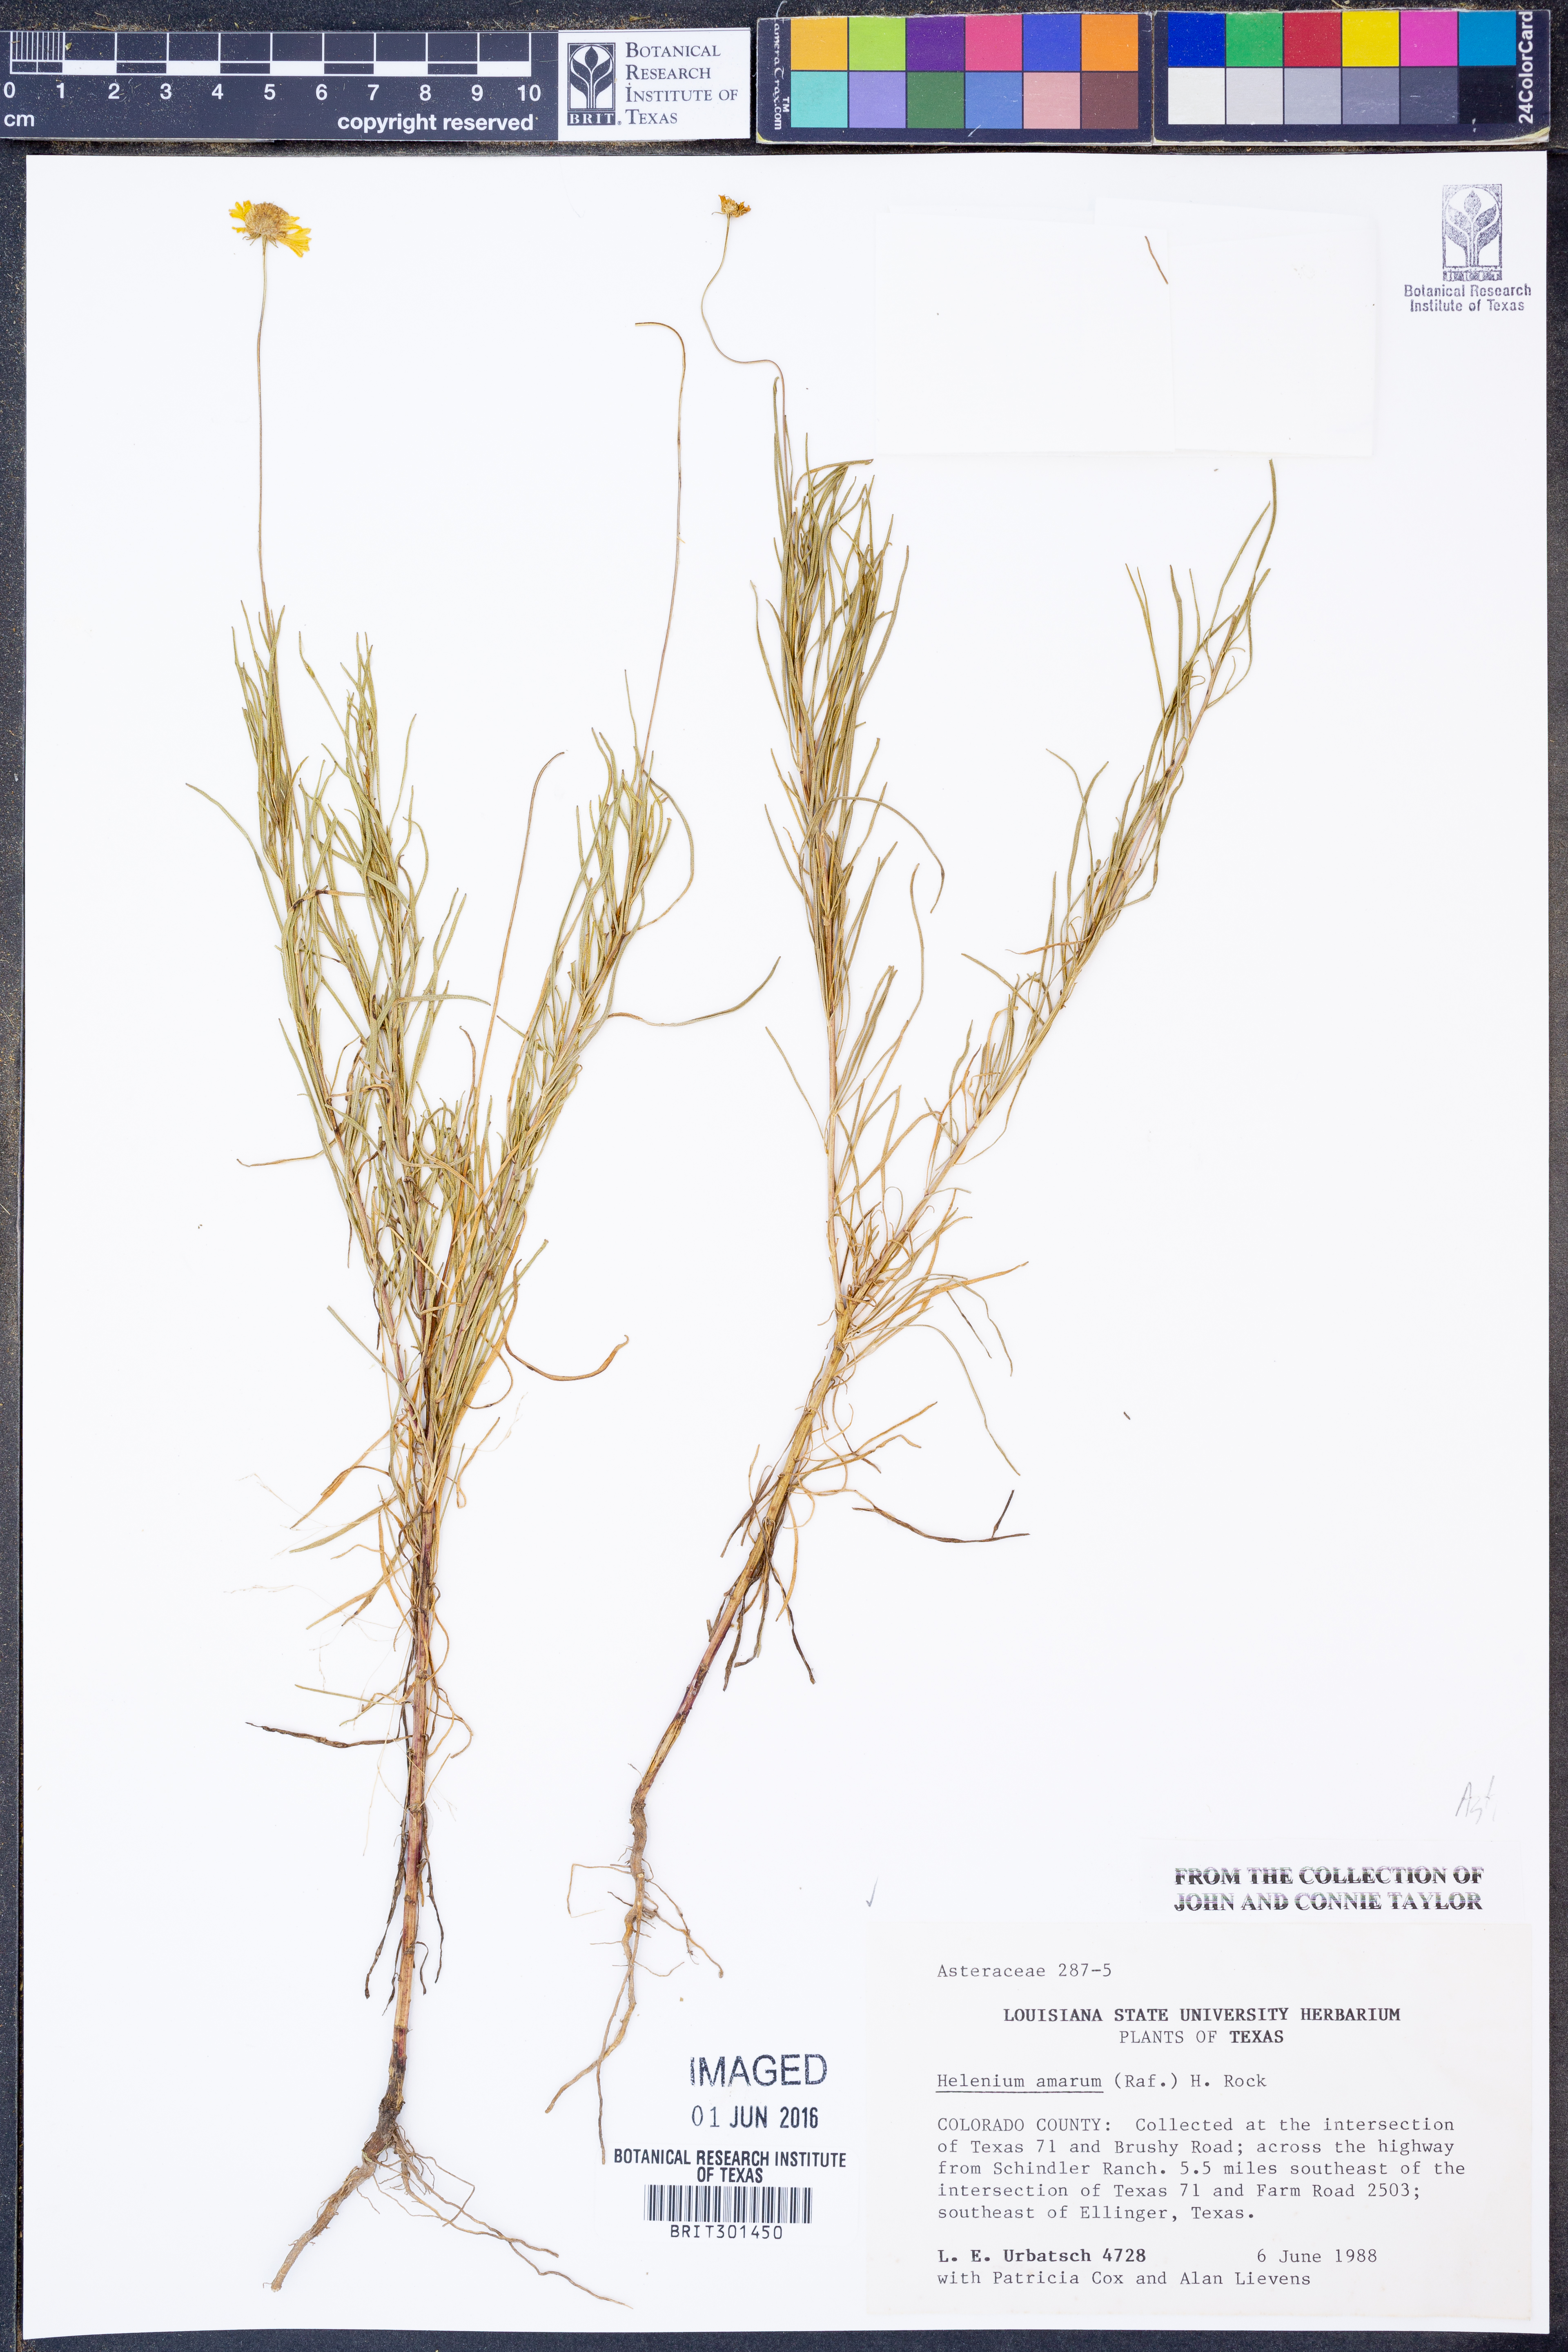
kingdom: Plantae
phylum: Tracheophyta
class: Magnoliopsida
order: Asterales
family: Asteraceae
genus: Helenium
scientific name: Helenium amarum
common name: Bitter sneezeweed
